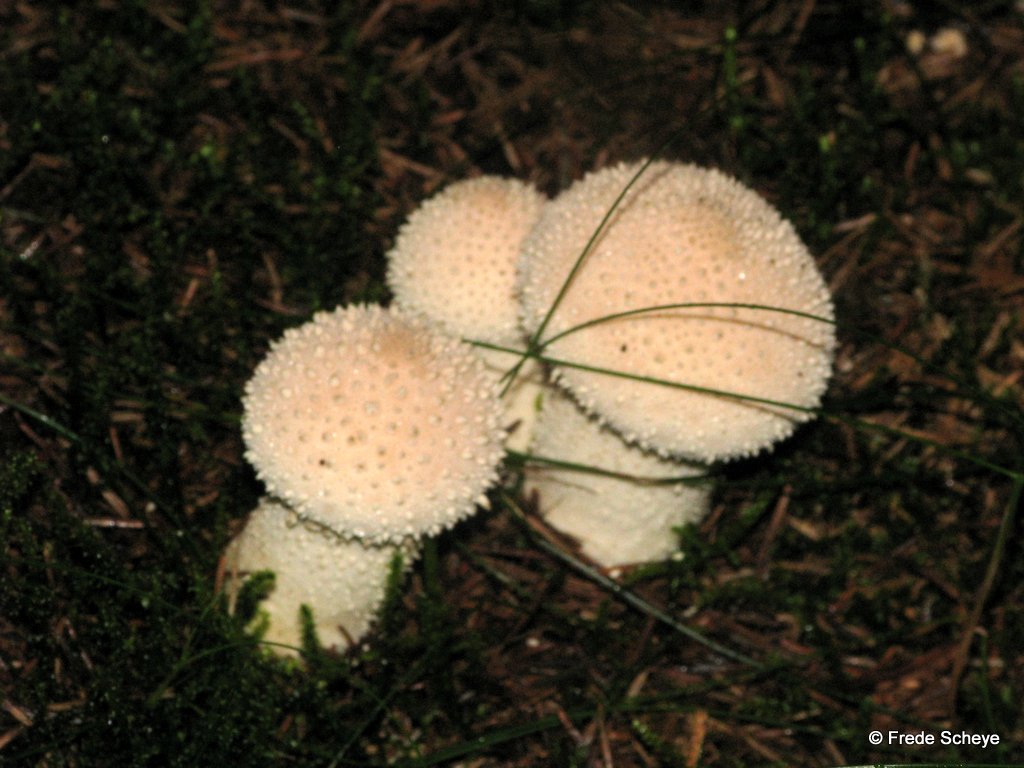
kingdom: Fungi
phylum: Basidiomycota
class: Agaricomycetes
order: Agaricales
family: Lycoperdaceae
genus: Lycoperdon
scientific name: Lycoperdon perlatum
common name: krystal-støvbold
